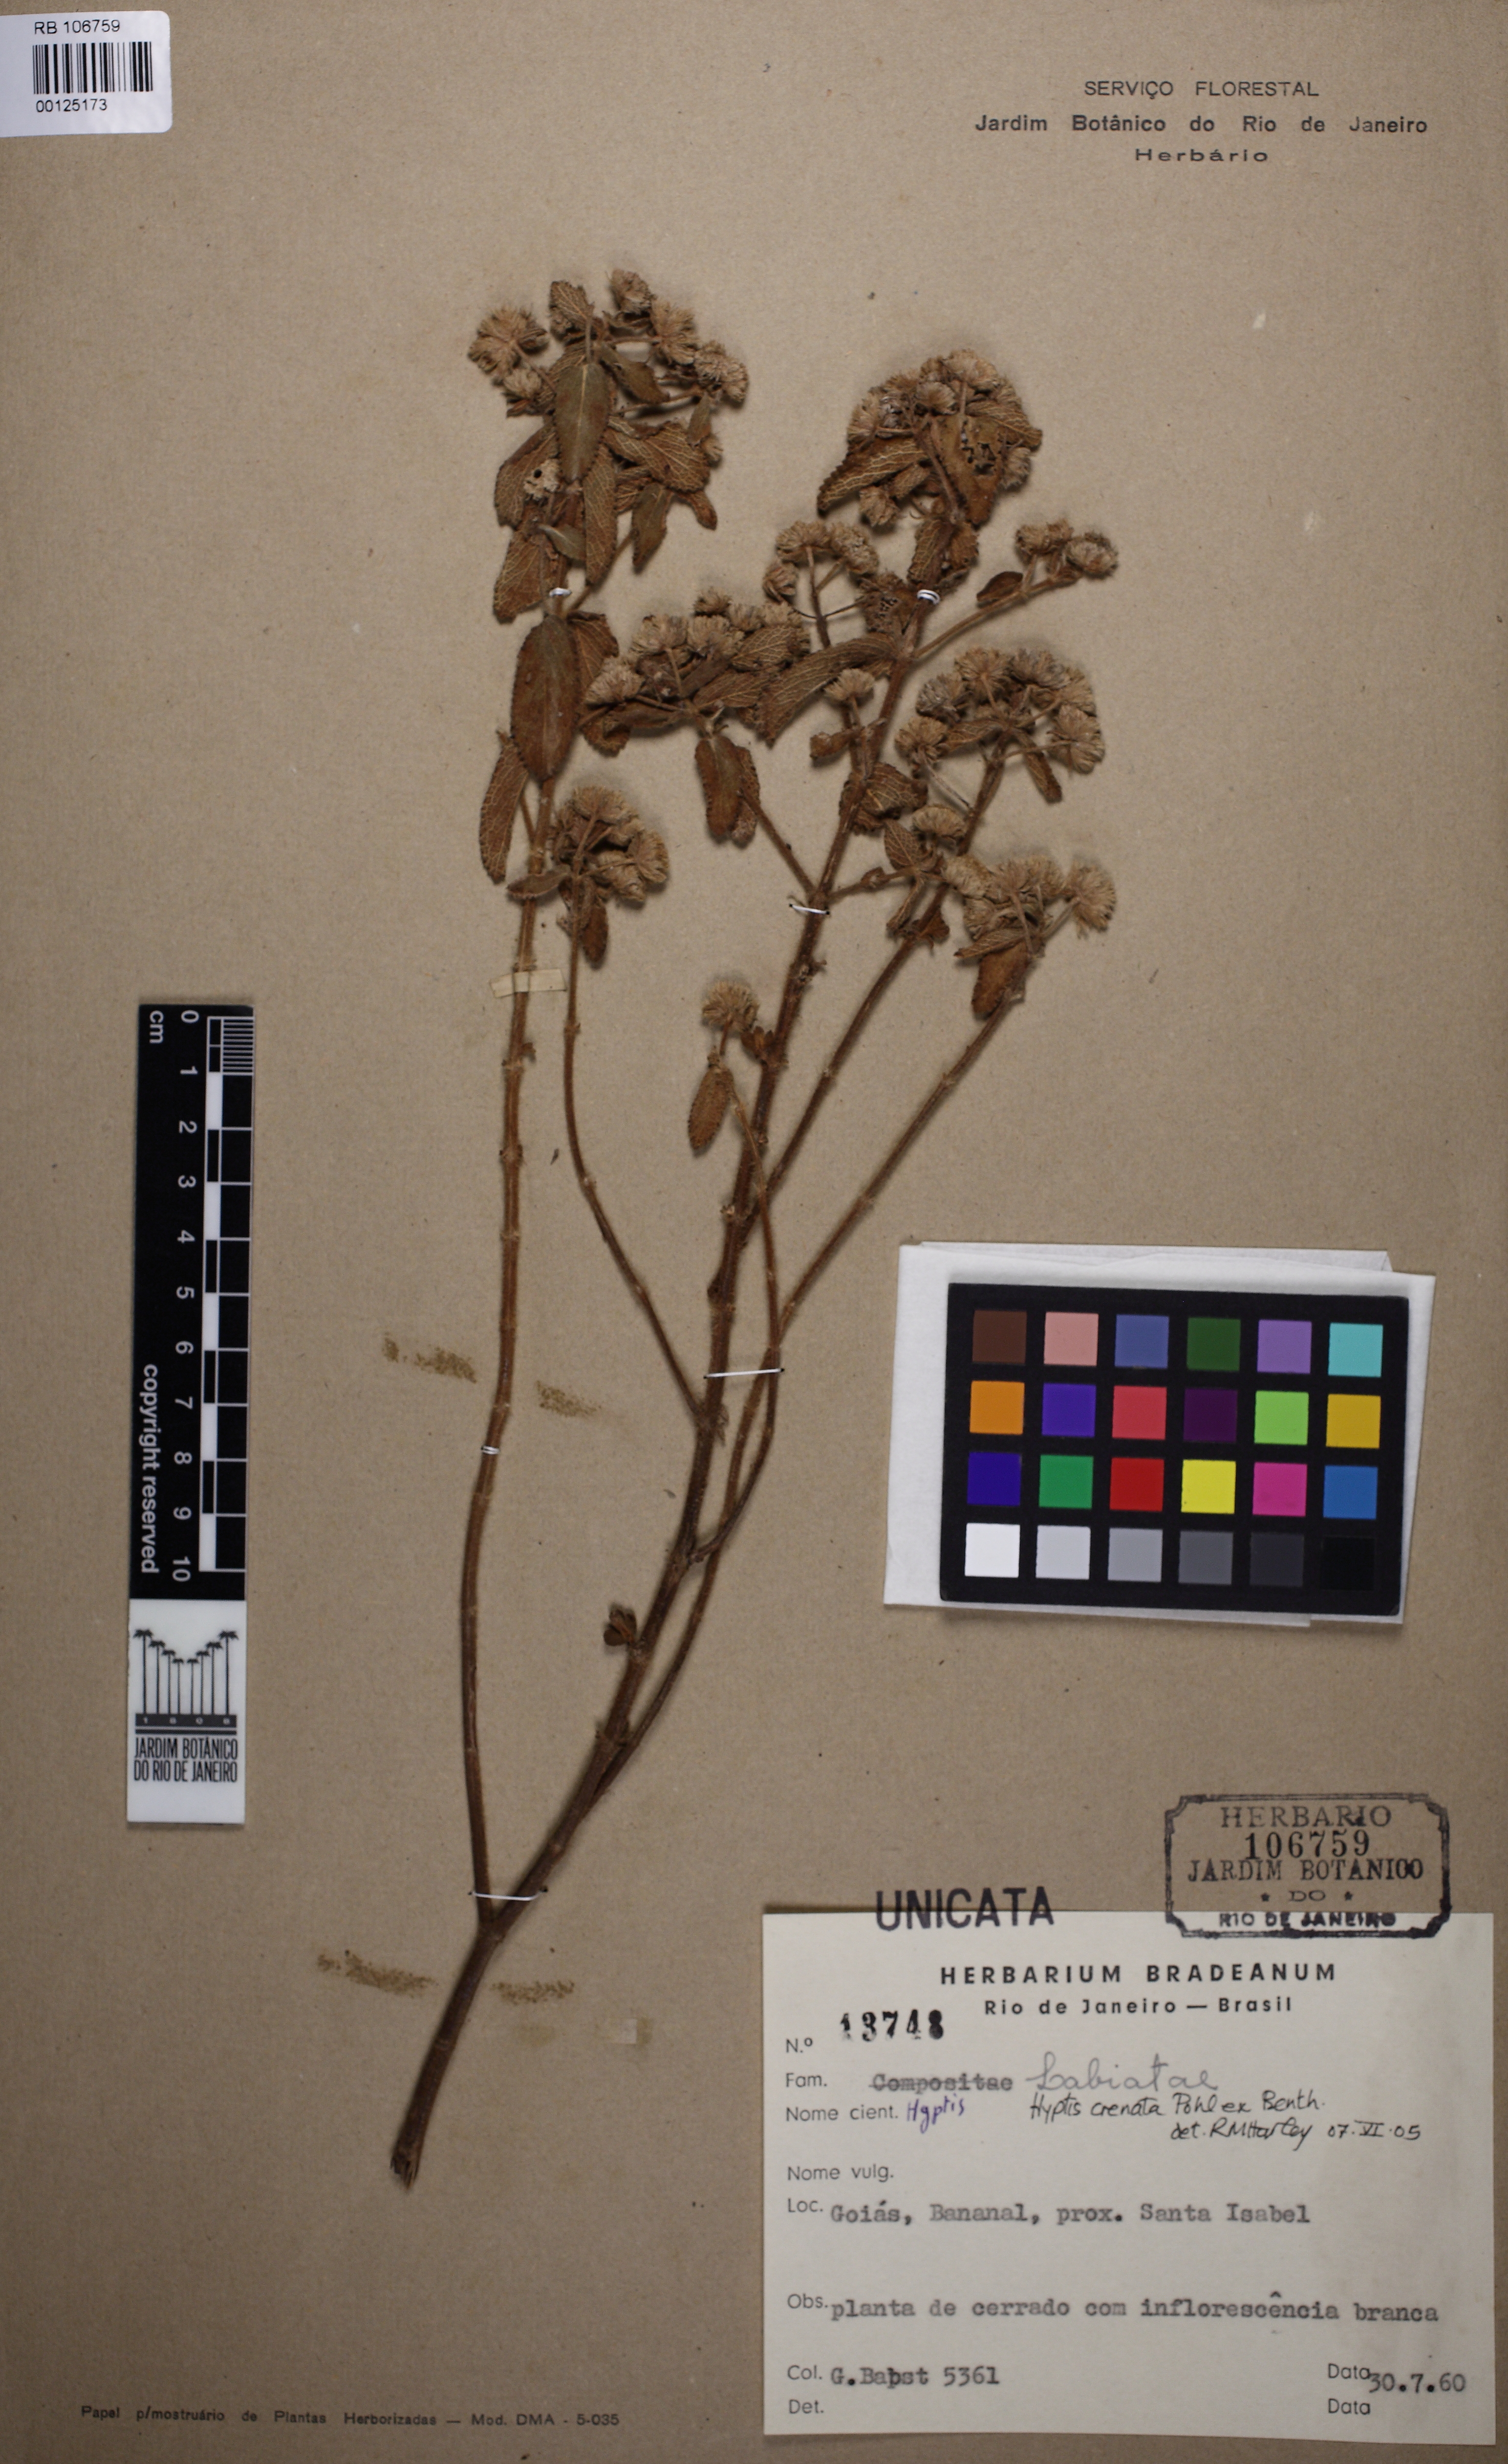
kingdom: Plantae
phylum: Tracheophyta
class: Magnoliopsida
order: Lamiales
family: Lamiaceae
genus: Hyptis
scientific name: Hyptis crenata
